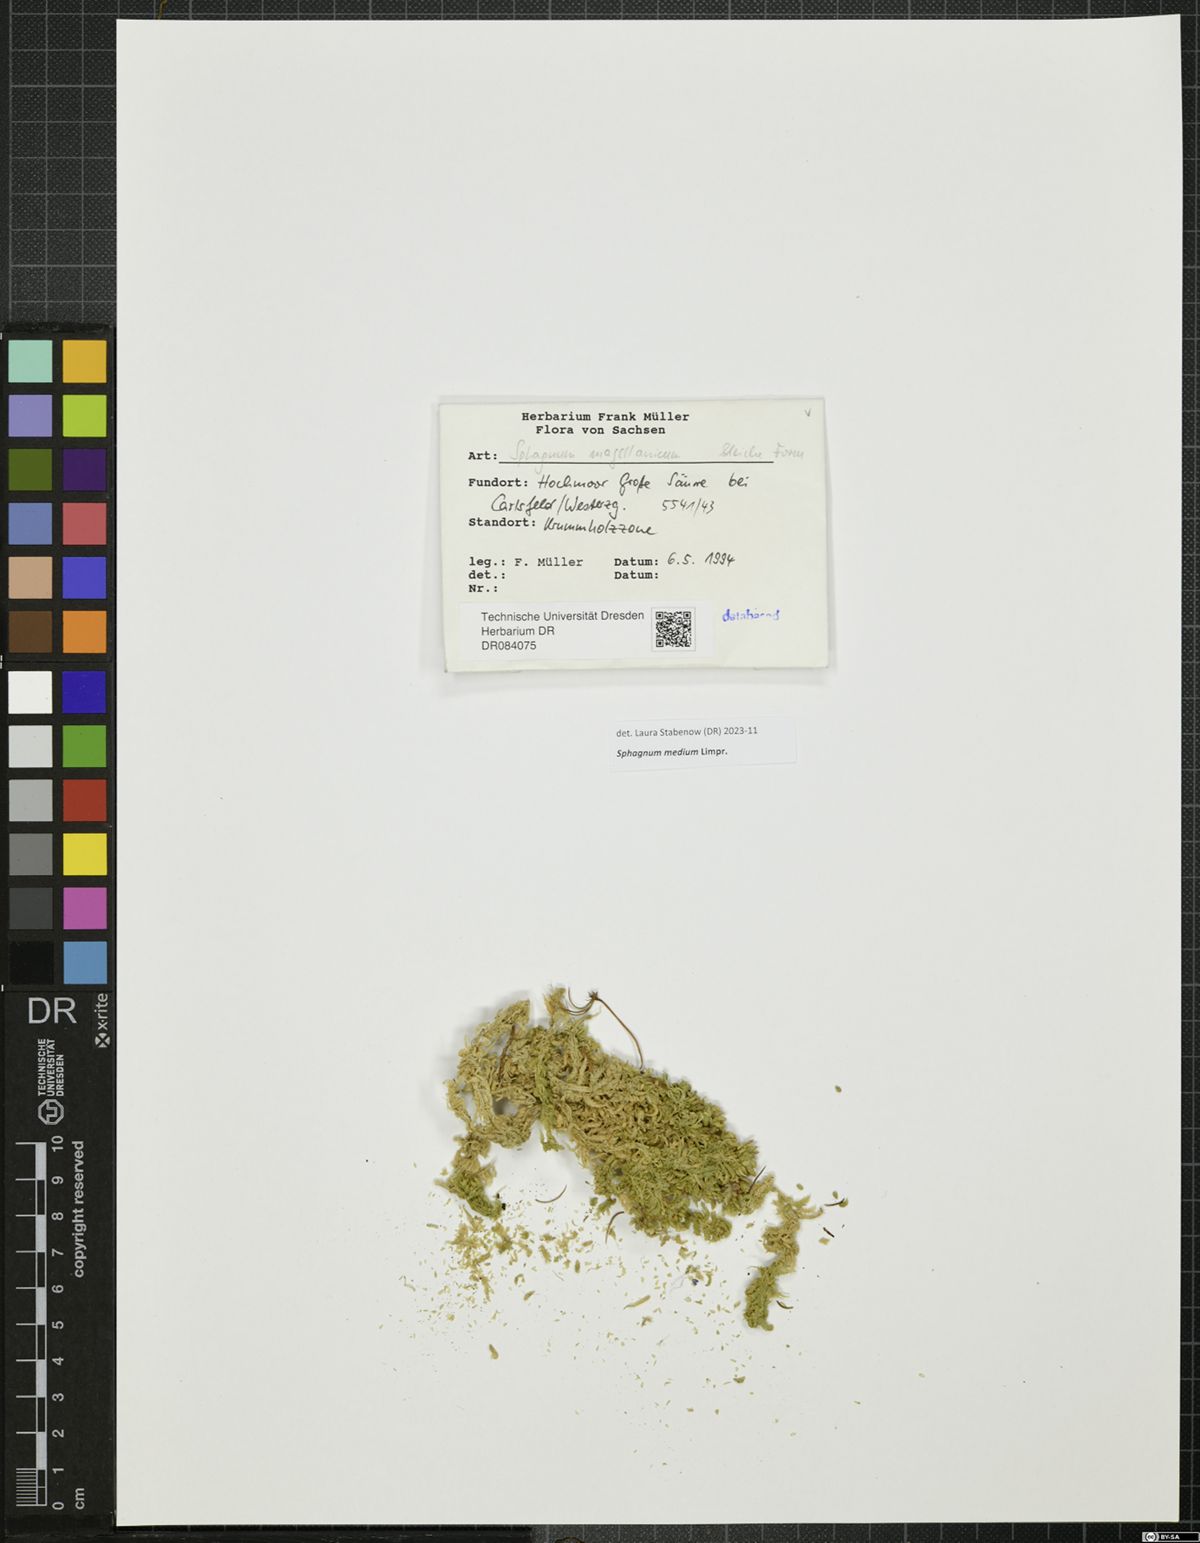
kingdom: Plantae
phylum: Bryophyta
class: Sphagnopsida
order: Sphagnales
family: Sphagnaceae
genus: Sphagnum
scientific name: Sphagnum medium
